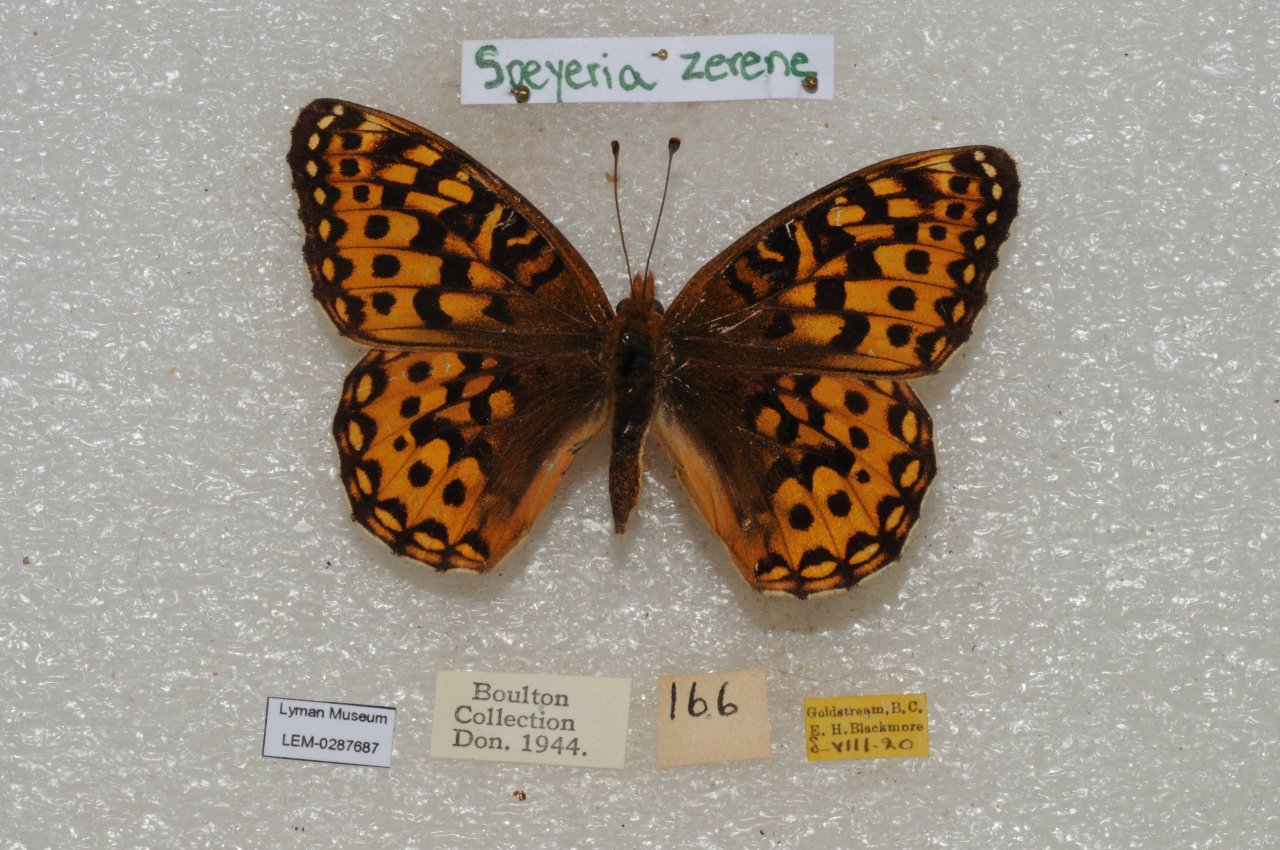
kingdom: Animalia
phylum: Arthropoda
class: Insecta
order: Lepidoptera
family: Nymphalidae
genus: Speyeria
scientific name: Speyeria zerene
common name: Zerene Fritillary
